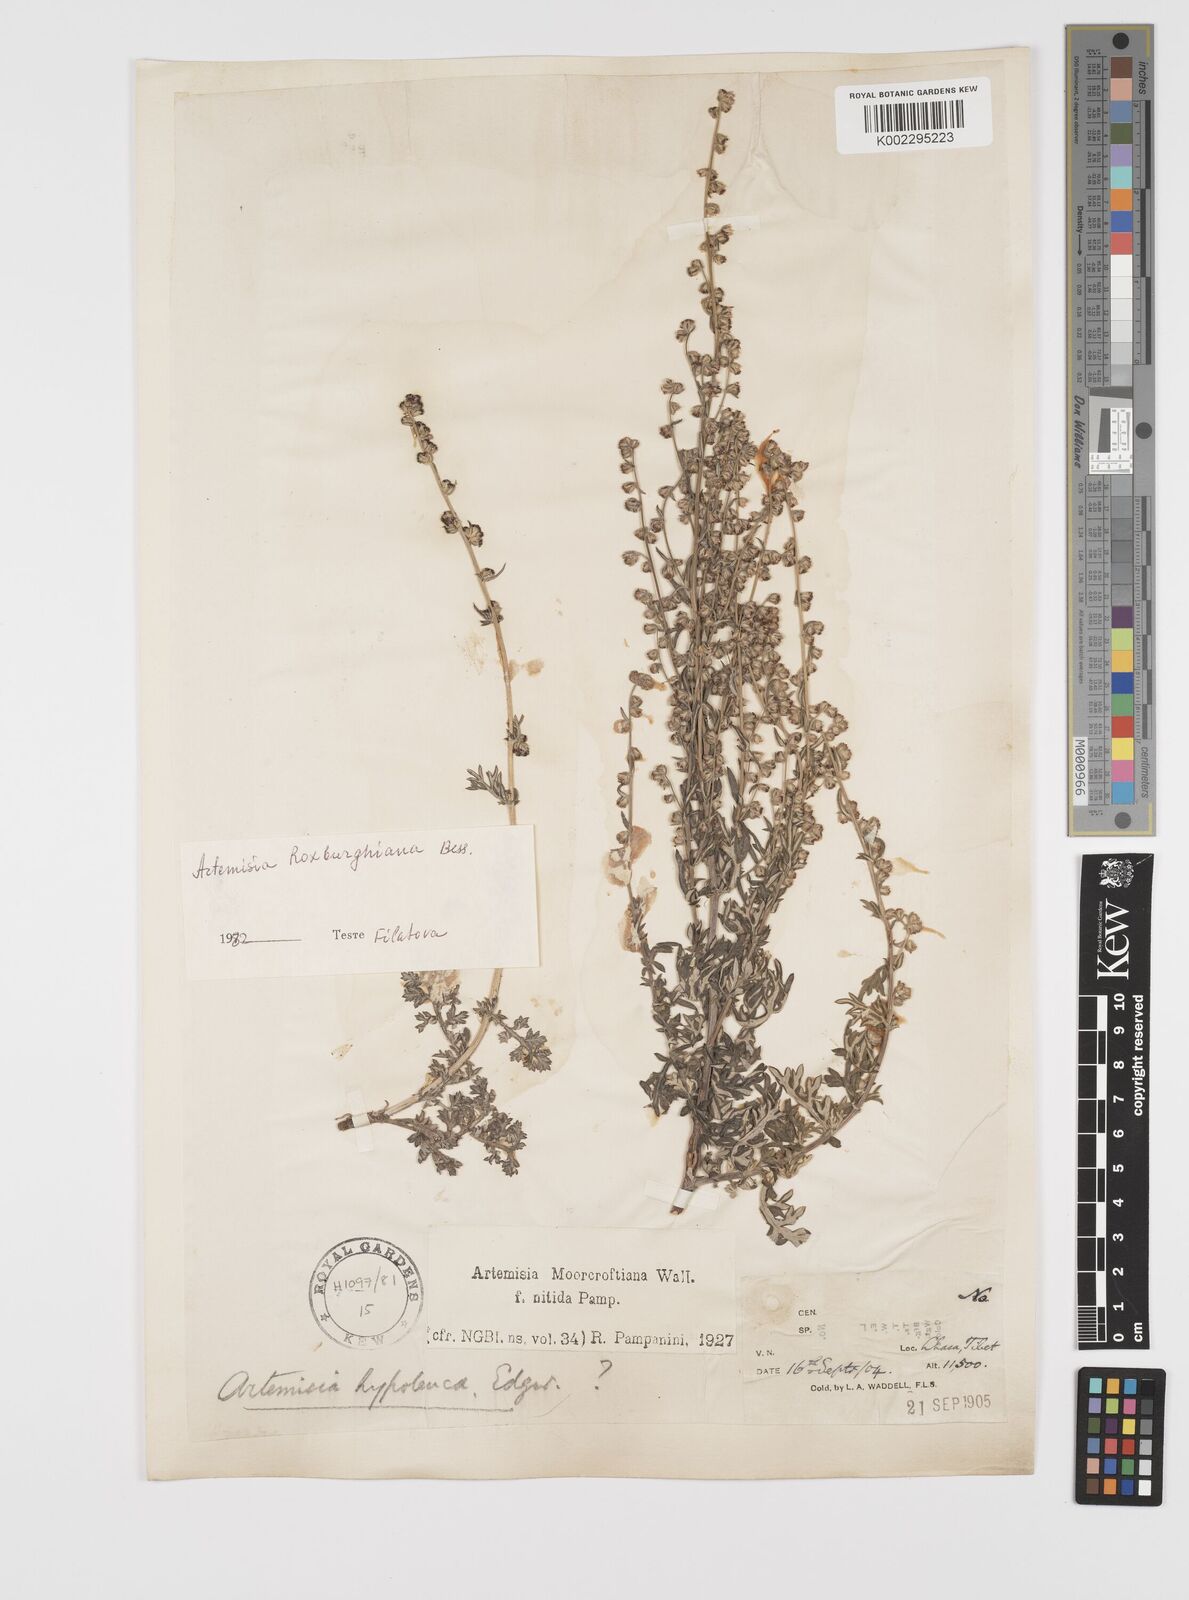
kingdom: Plantae
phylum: Tracheophyta
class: Magnoliopsida
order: Asterales
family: Asteraceae
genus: Artemisia
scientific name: Artemisia roxburghiana
